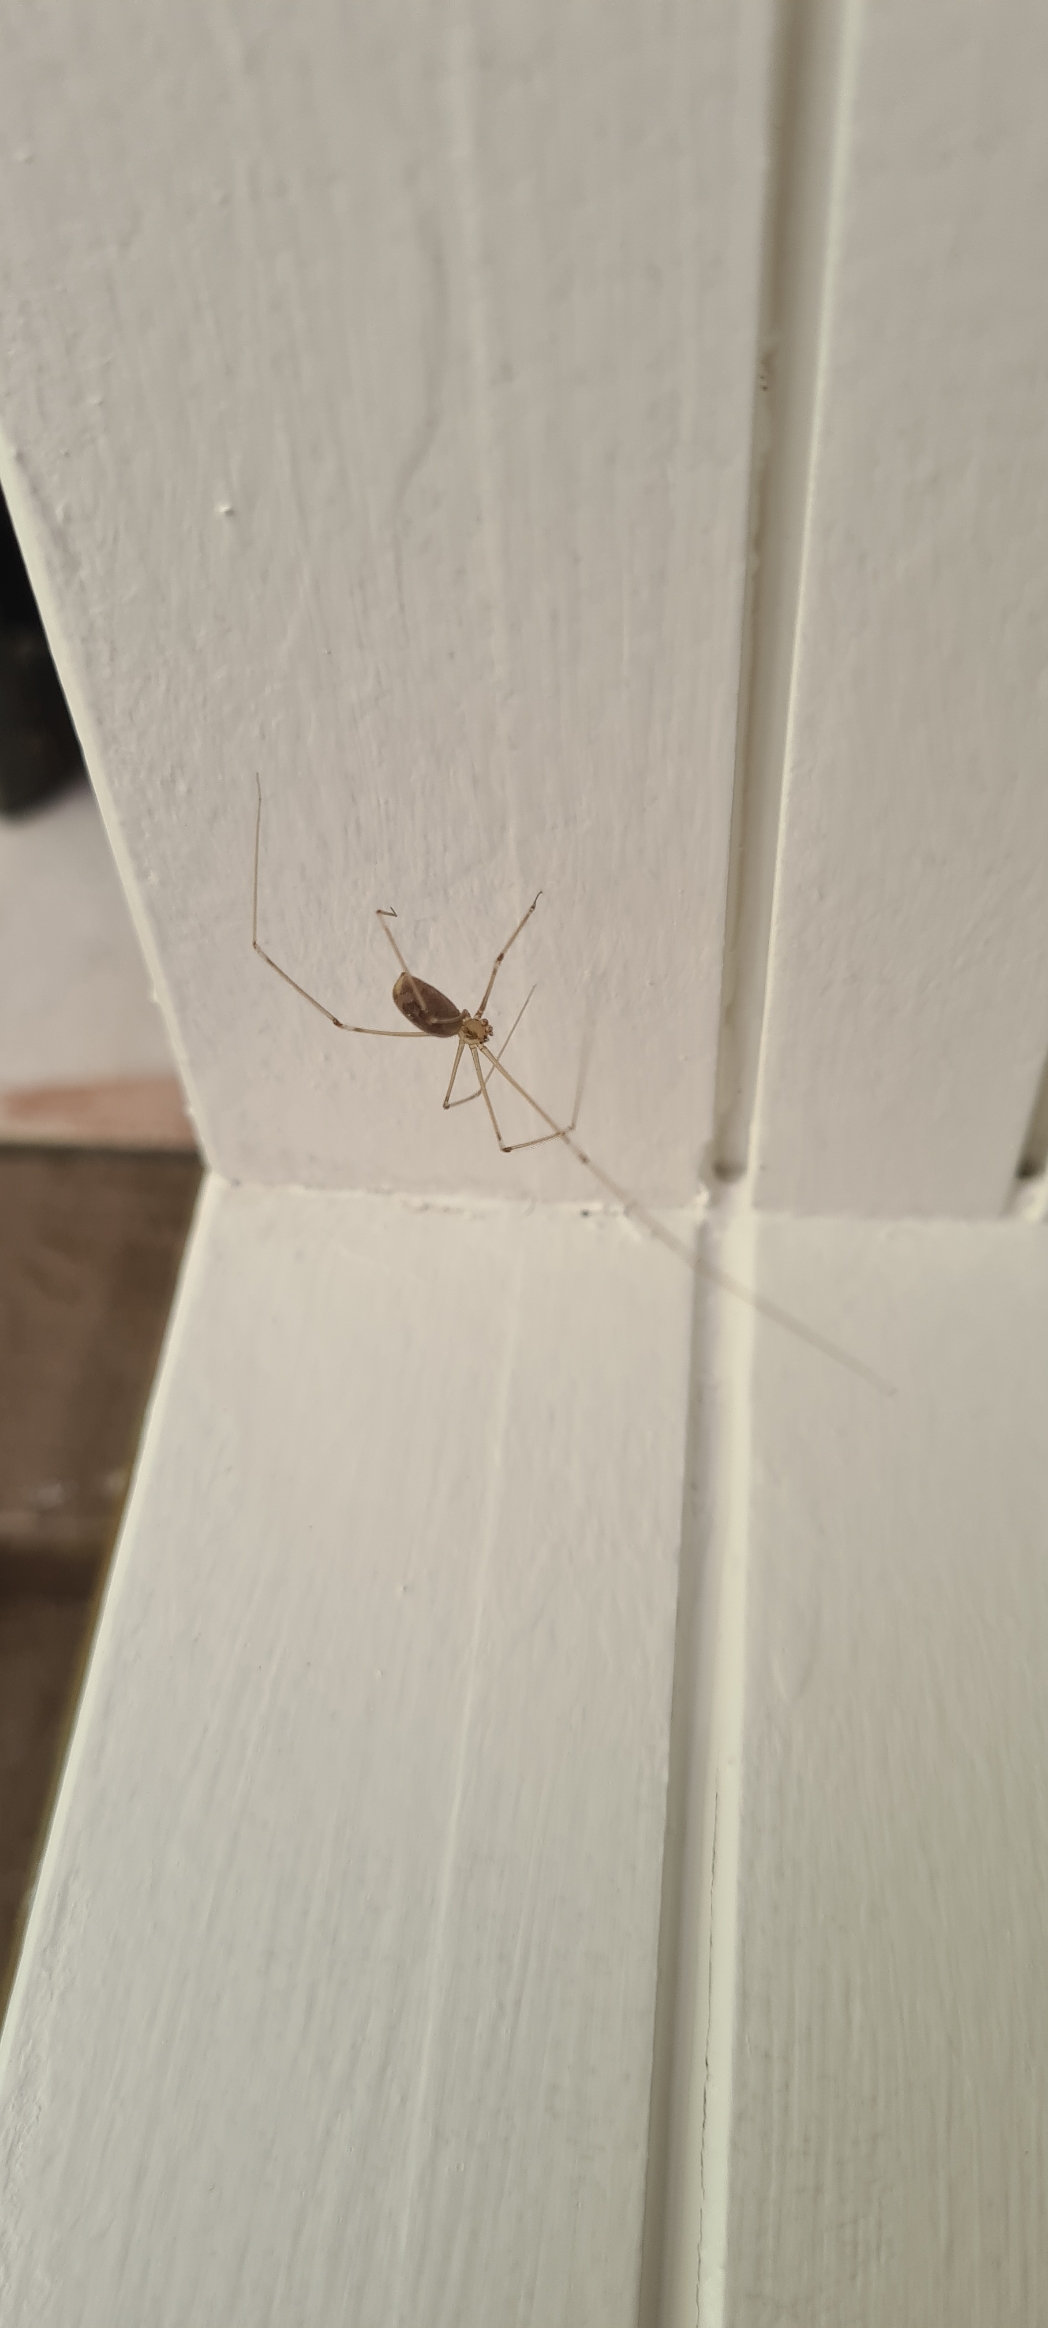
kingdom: Animalia
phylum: Arthropoda
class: Arachnida
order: Araneae
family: Pholcidae
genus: Pholcus
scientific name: Pholcus phalangioides
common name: Mejeredderkop
